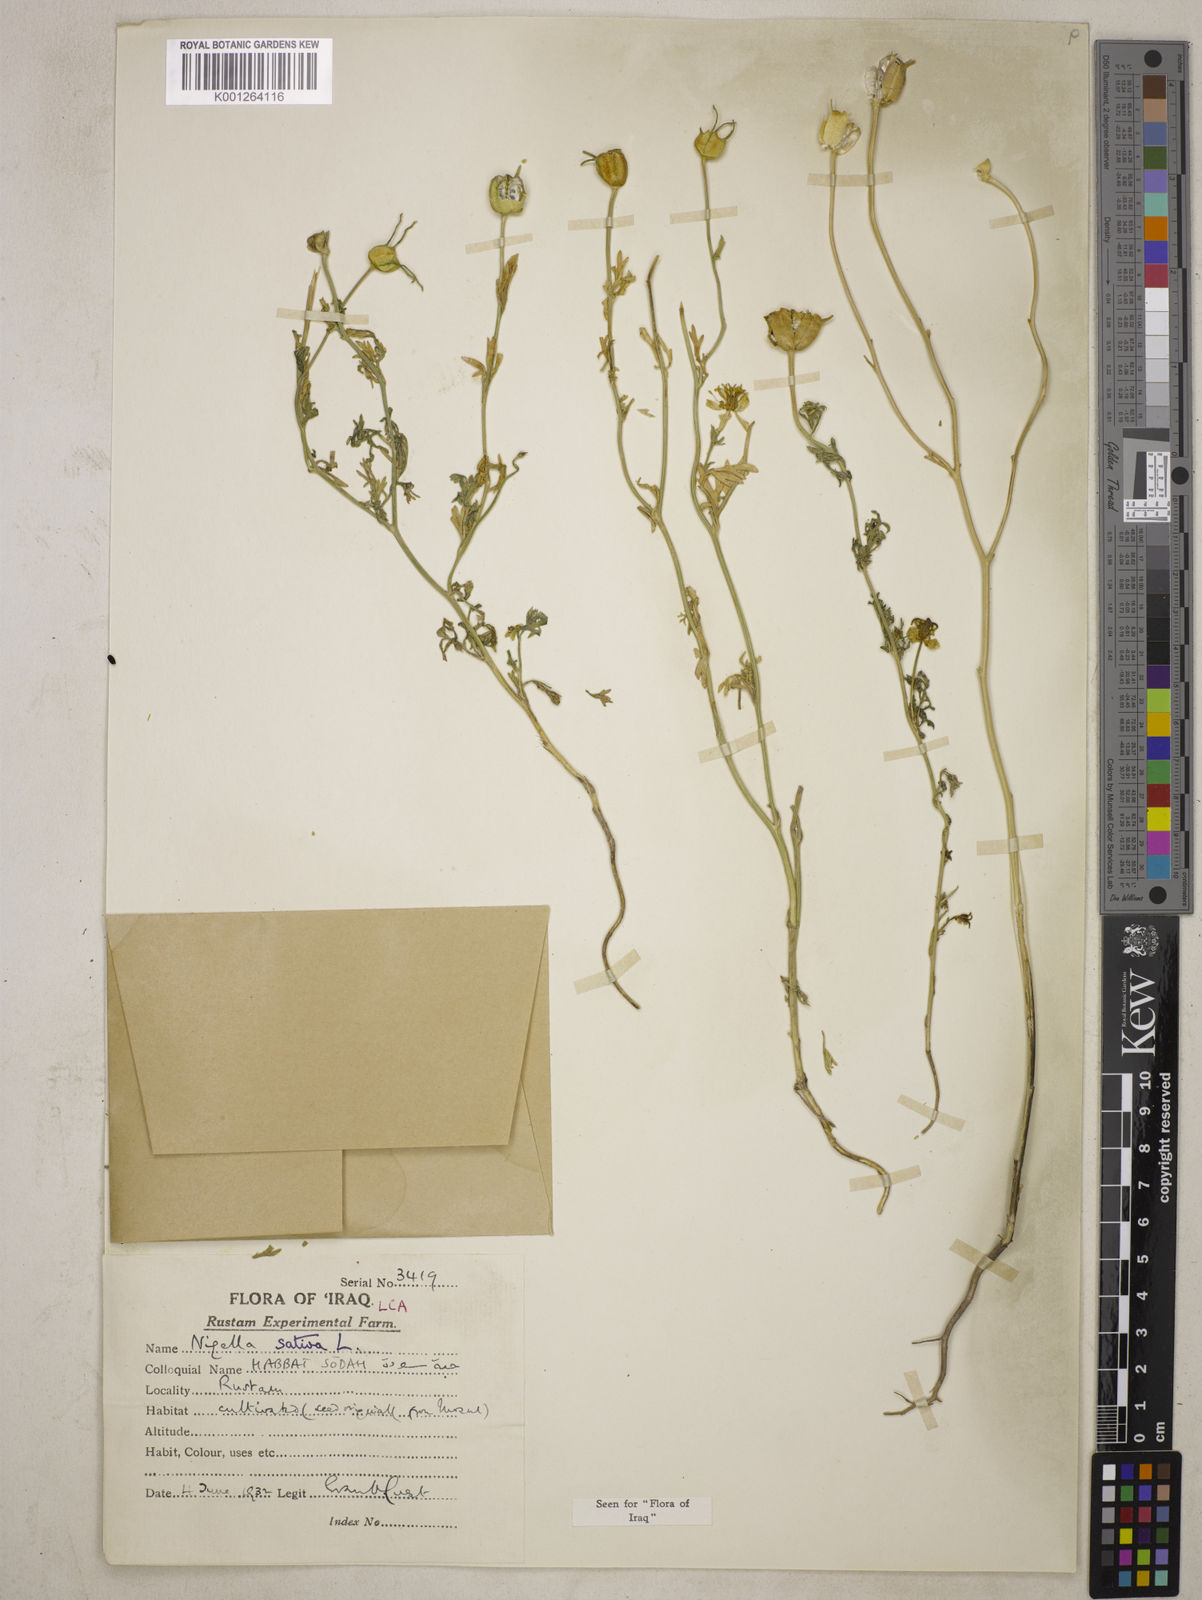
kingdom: Plantae
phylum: Tracheophyta
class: Magnoliopsida
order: Ranunculales
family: Ranunculaceae
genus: Nigella
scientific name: Nigella sativa
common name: Black-cumin
